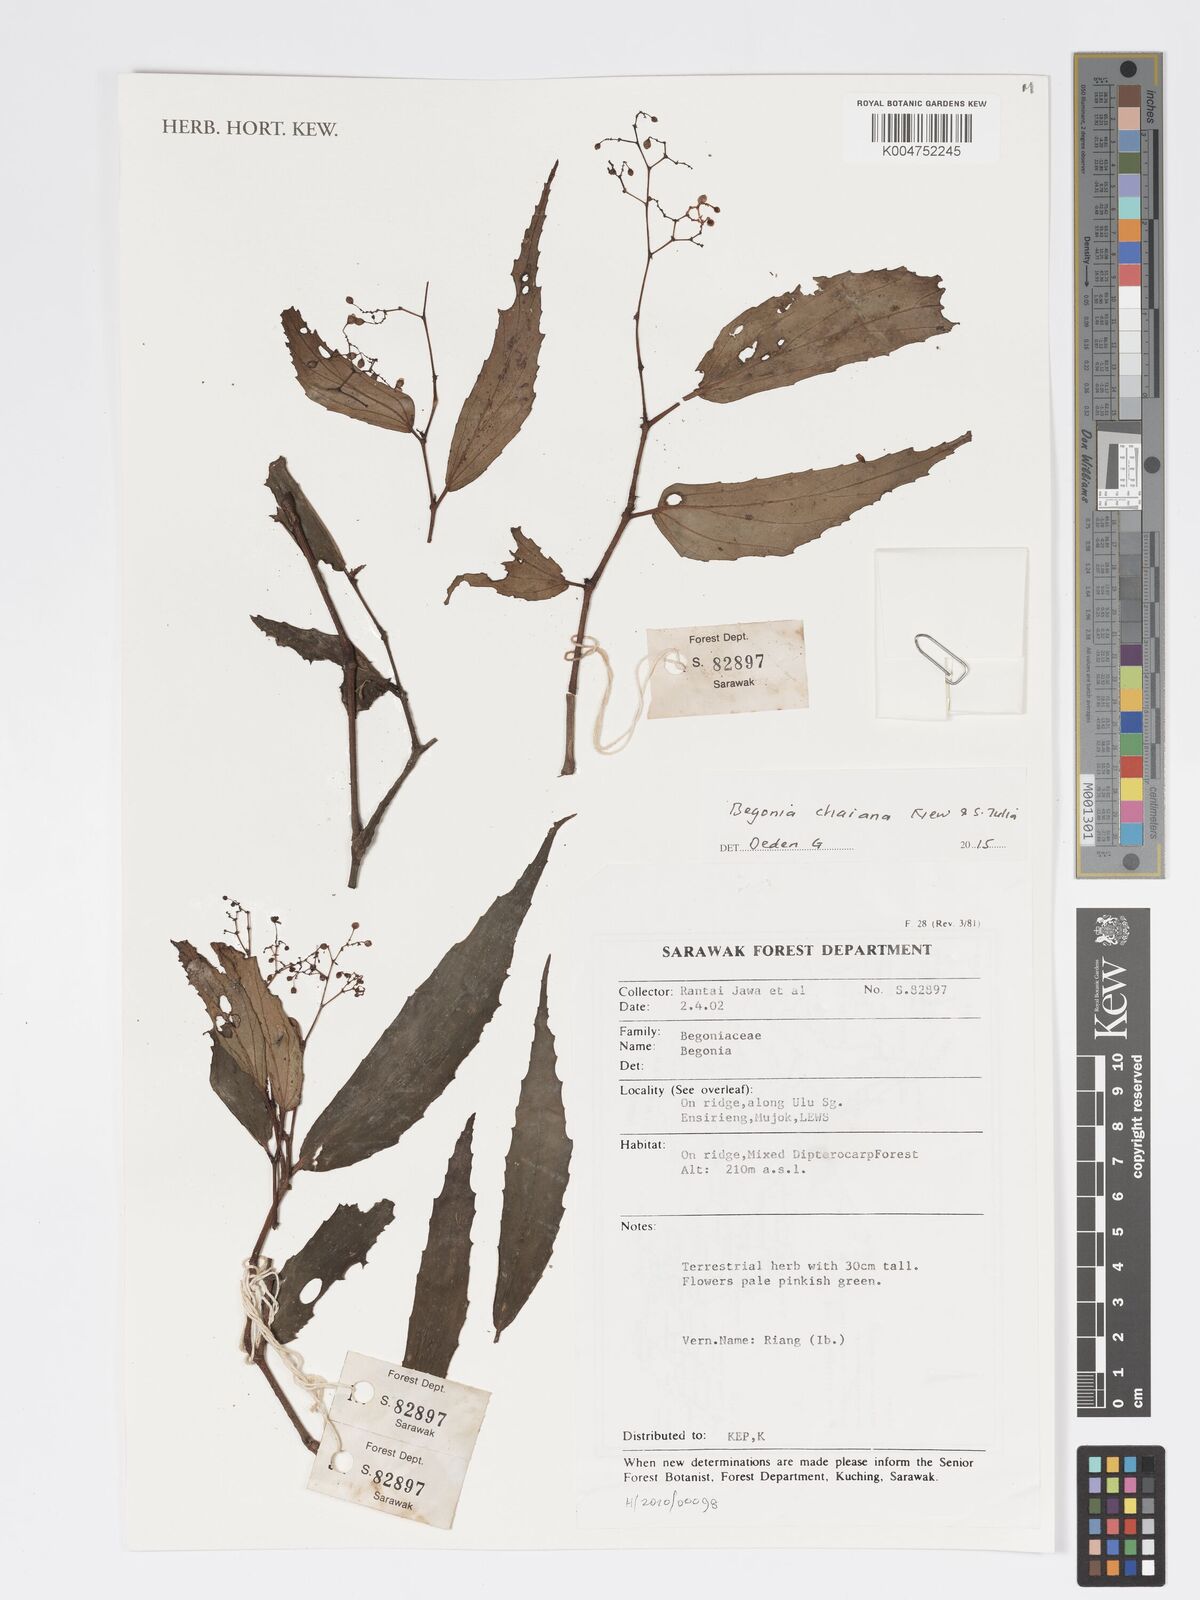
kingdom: Plantae
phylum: Tracheophyta
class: Magnoliopsida
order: Cucurbitales
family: Begoniaceae
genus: Begonia
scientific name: Begonia chaiana
